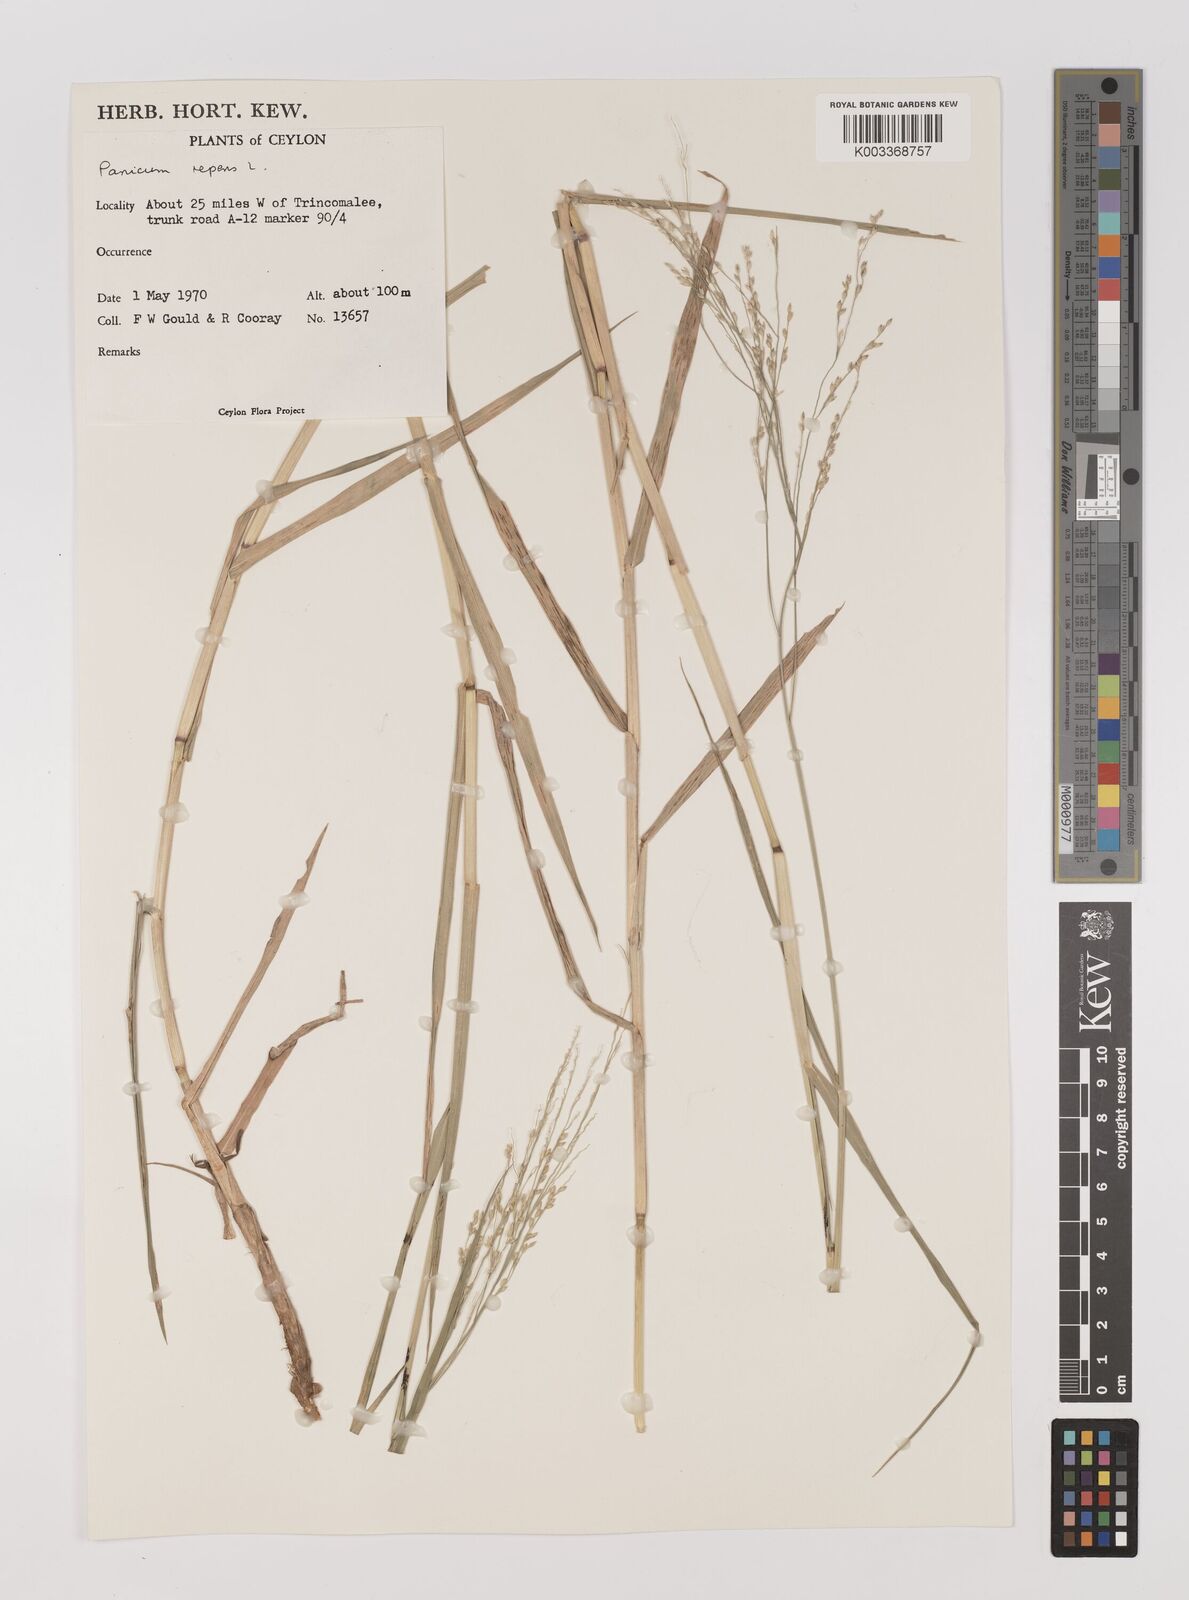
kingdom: Plantae
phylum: Tracheophyta
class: Liliopsida
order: Poales
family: Poaceae
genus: Panicum
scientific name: Panicum repens
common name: Torpedo grass
